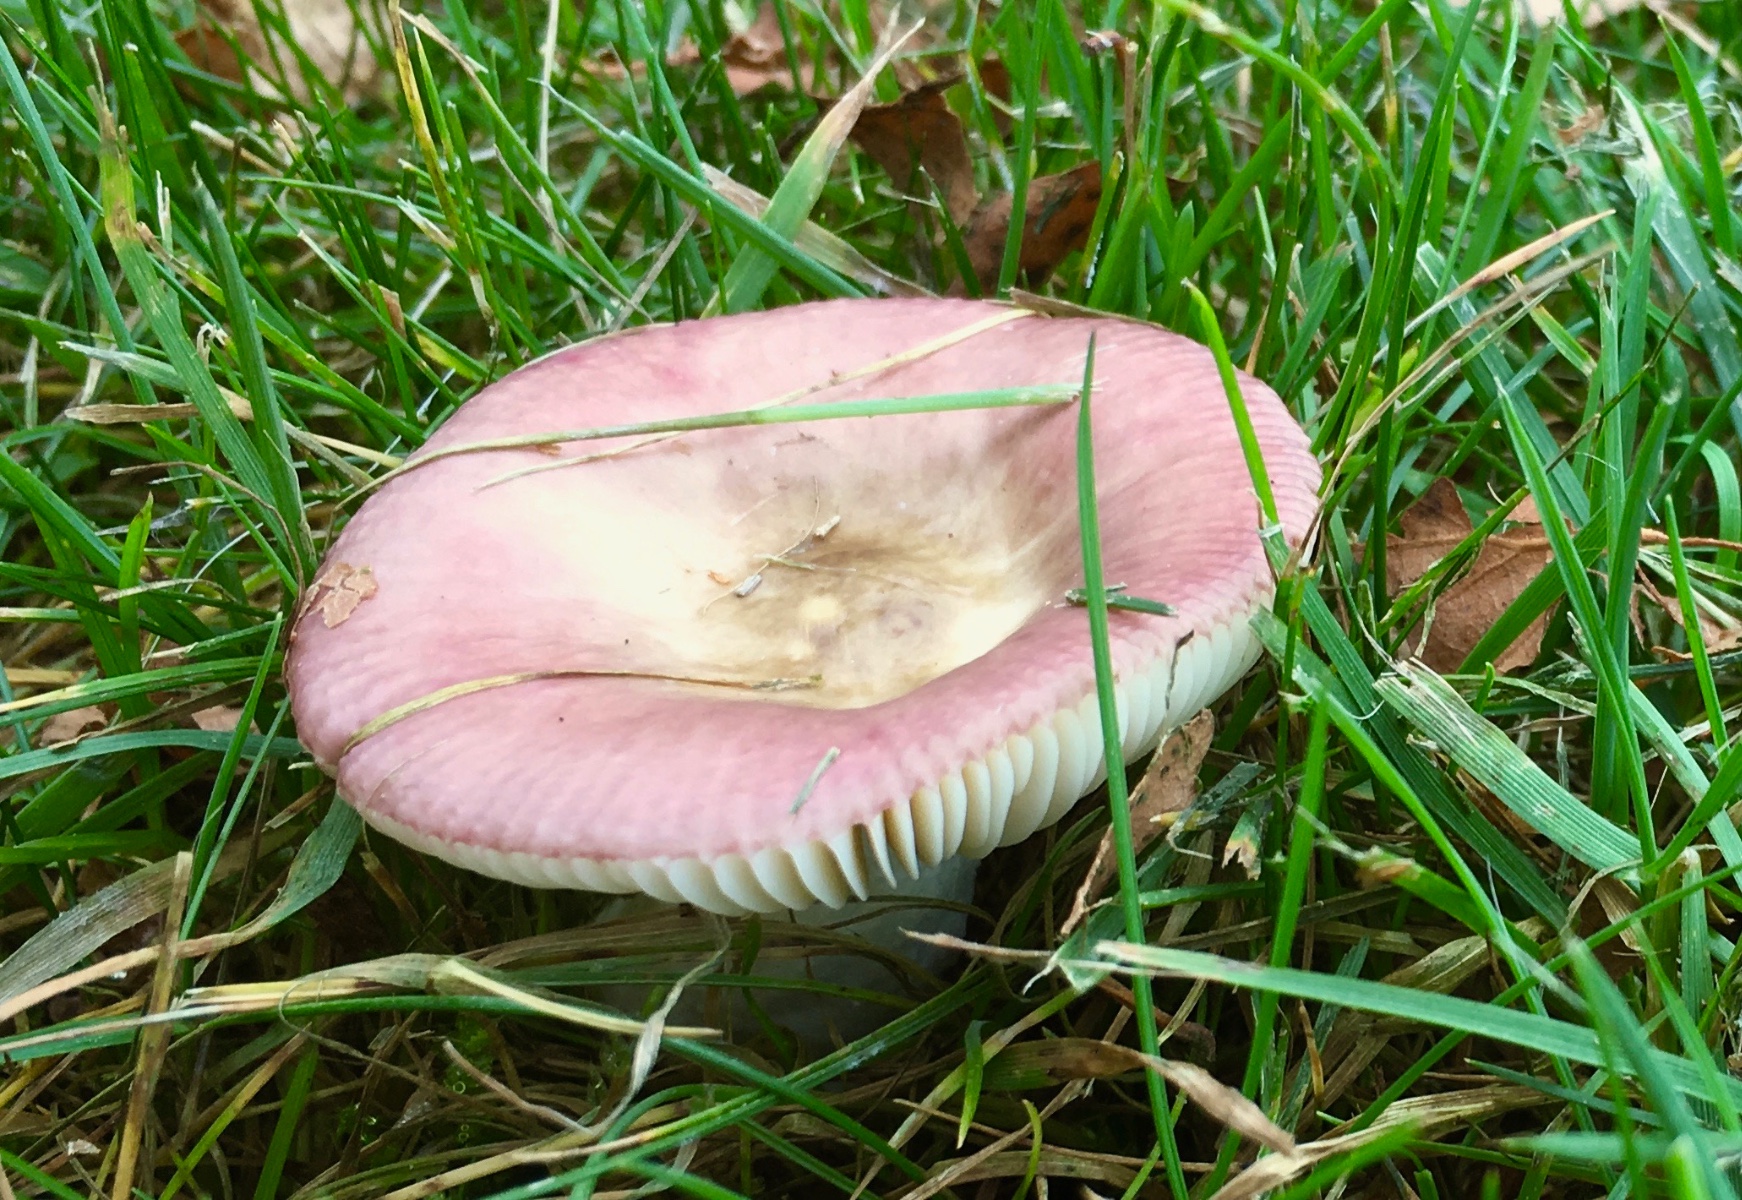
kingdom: Fungi
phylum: Basidiomycota
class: Agaricomycetes
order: Russulales
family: Russulaceae
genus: Russula
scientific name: Russula velenovskyi
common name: orangerød skørhat
